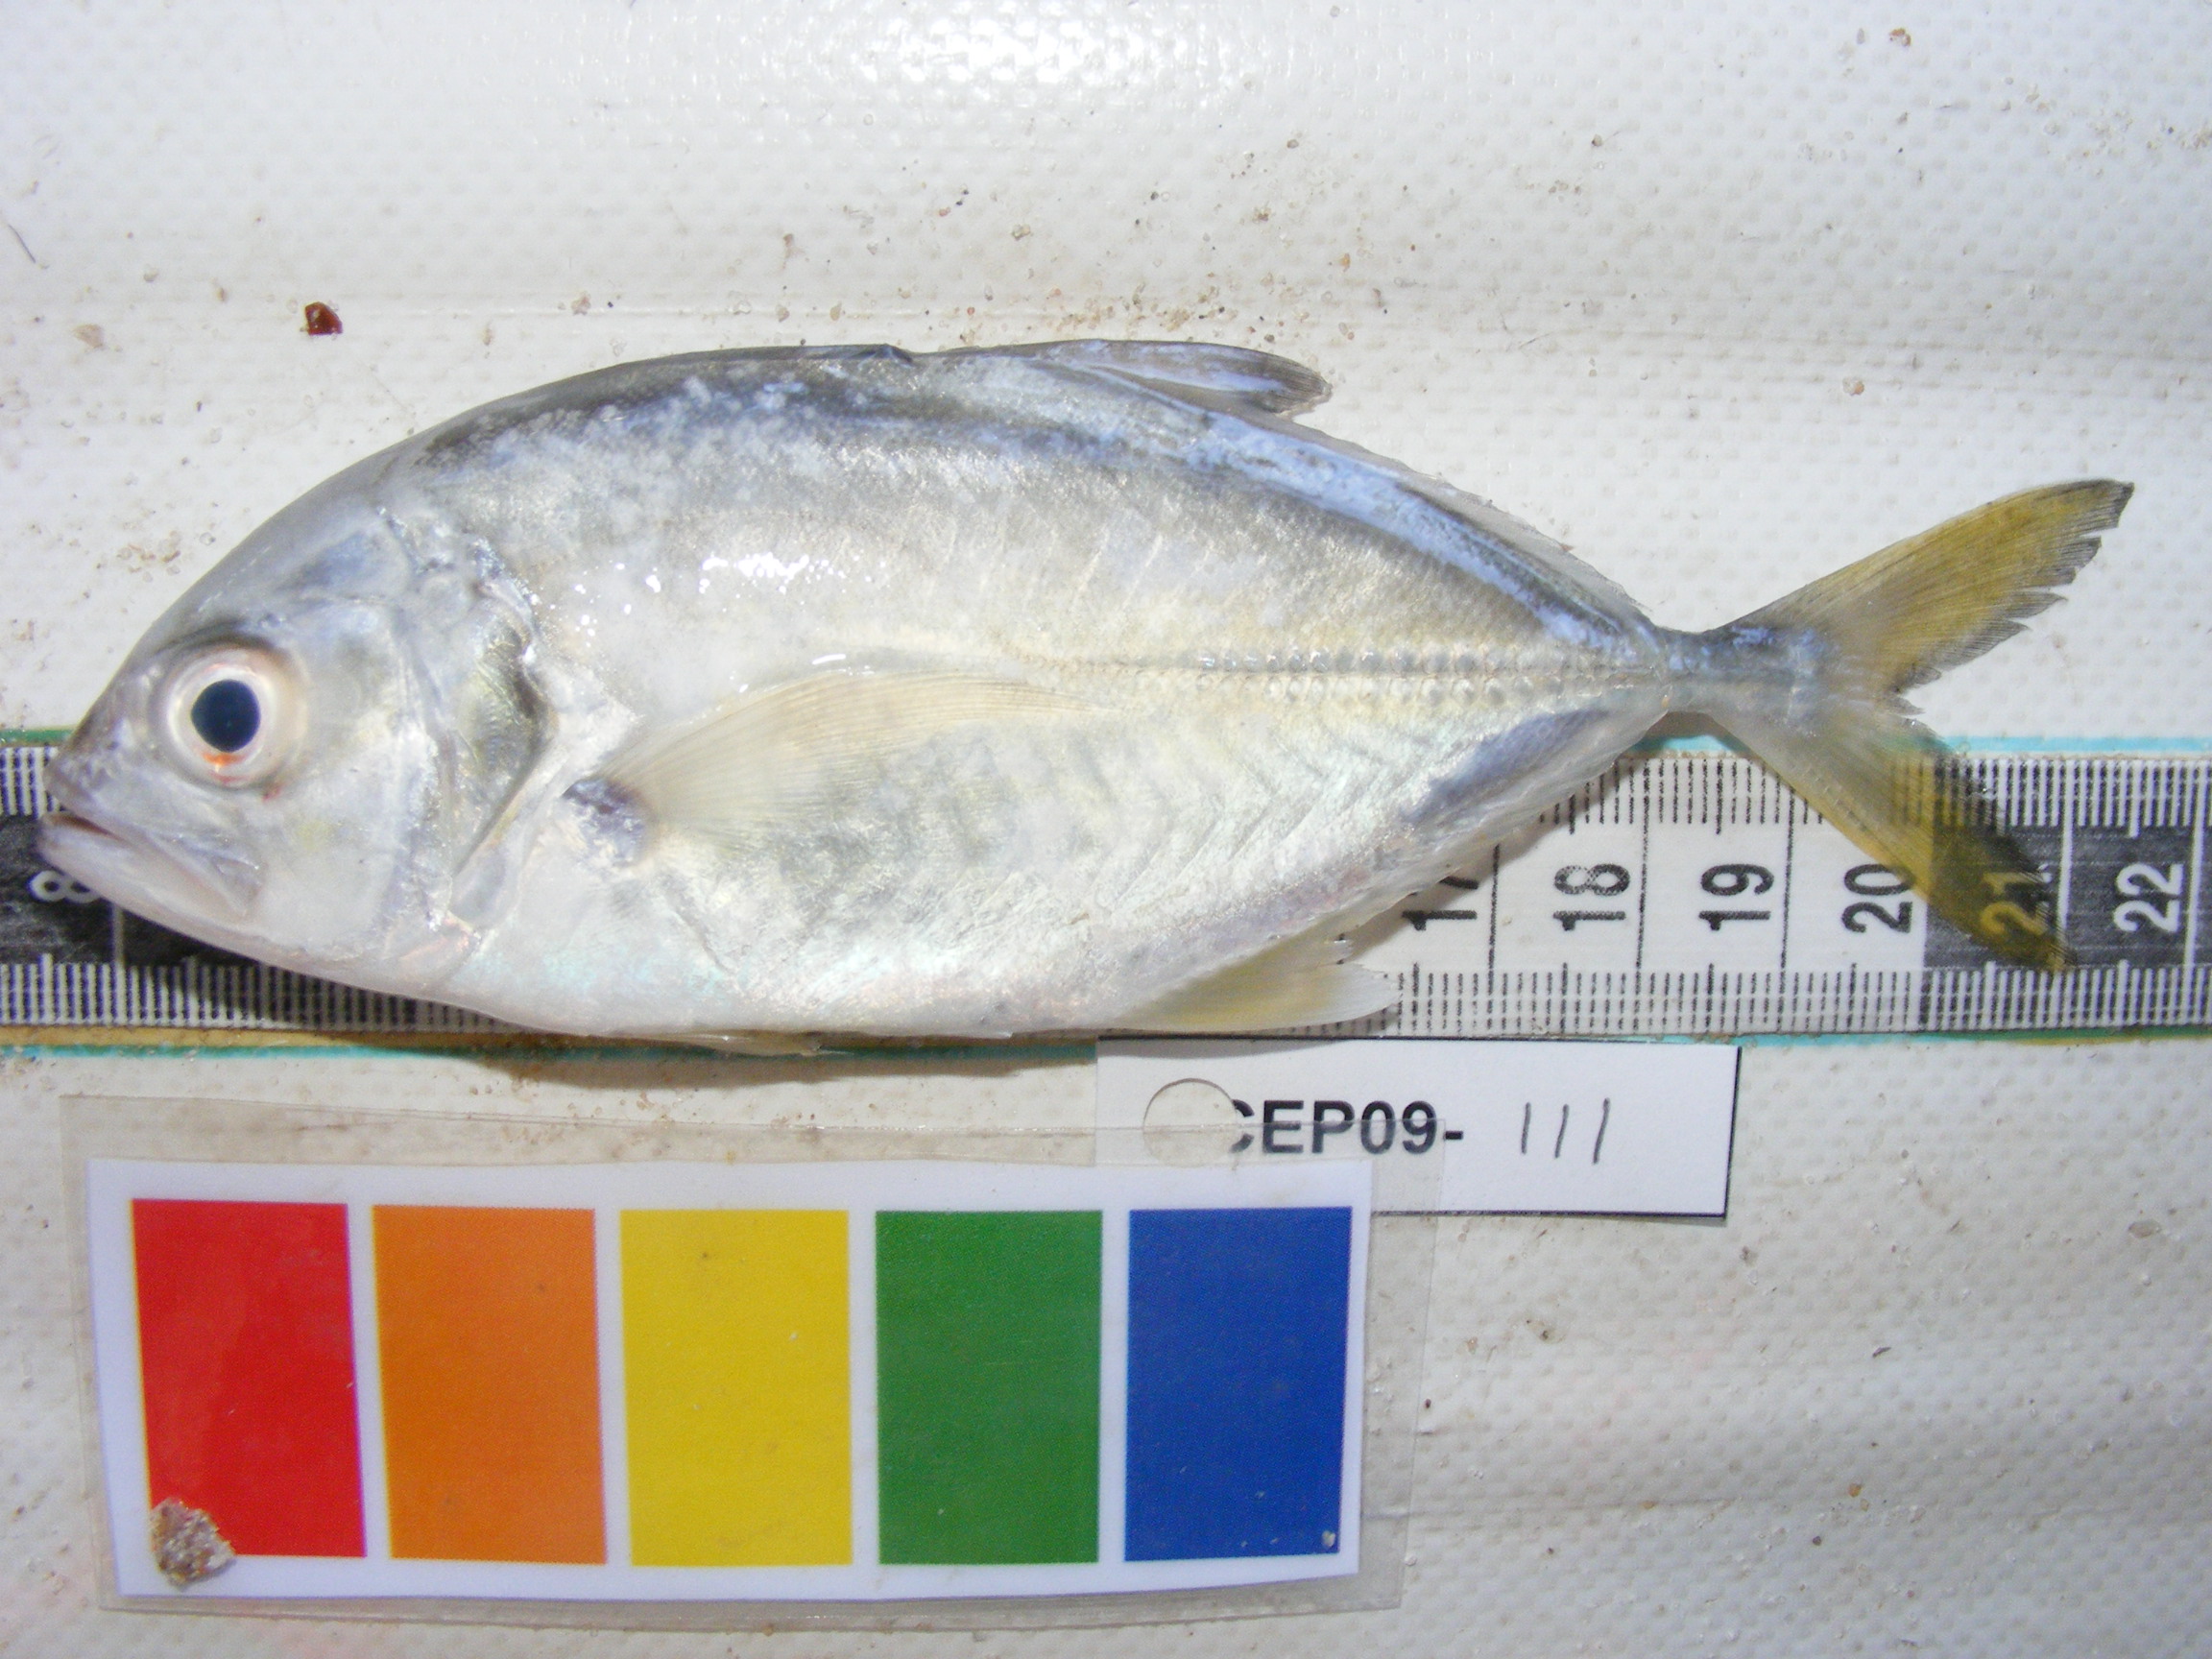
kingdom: Animalia
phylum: Chordata
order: Perciformes
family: Carangidae
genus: Caranx
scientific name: Caranx sexfasciatus
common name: Bigeye trevally
